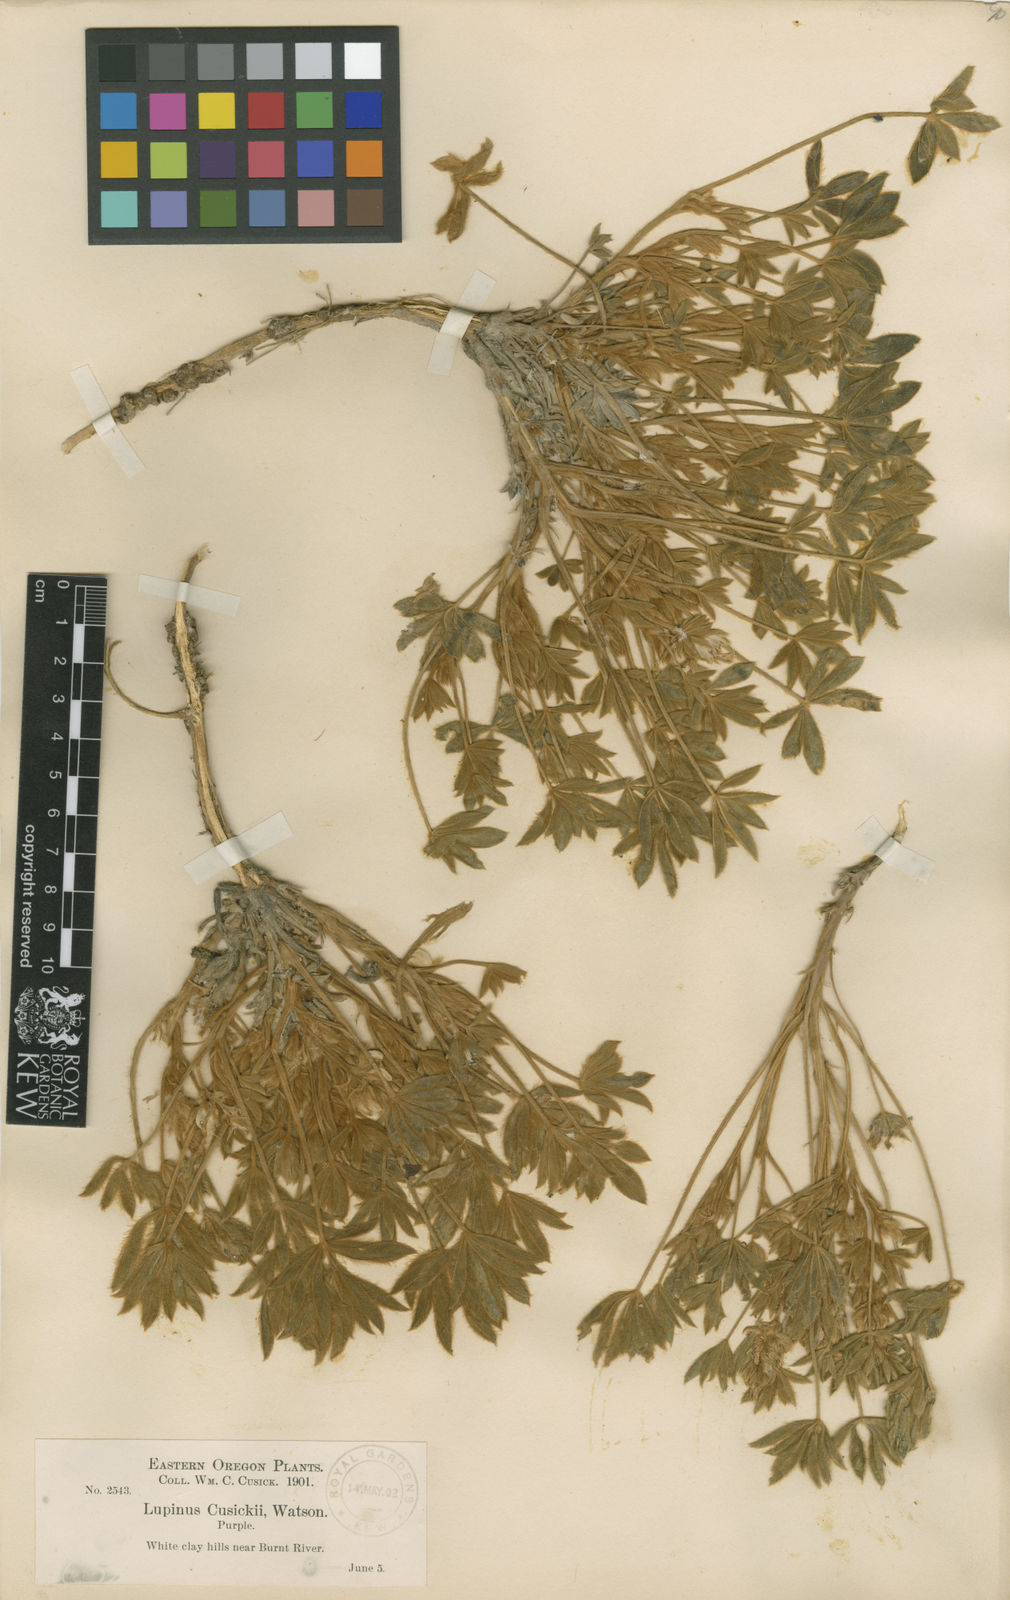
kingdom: Plantae
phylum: Tracheophyta
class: Magnoliopsida
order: Fabales
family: Fabaceae
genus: Lupinus
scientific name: Lupinus cusickii
